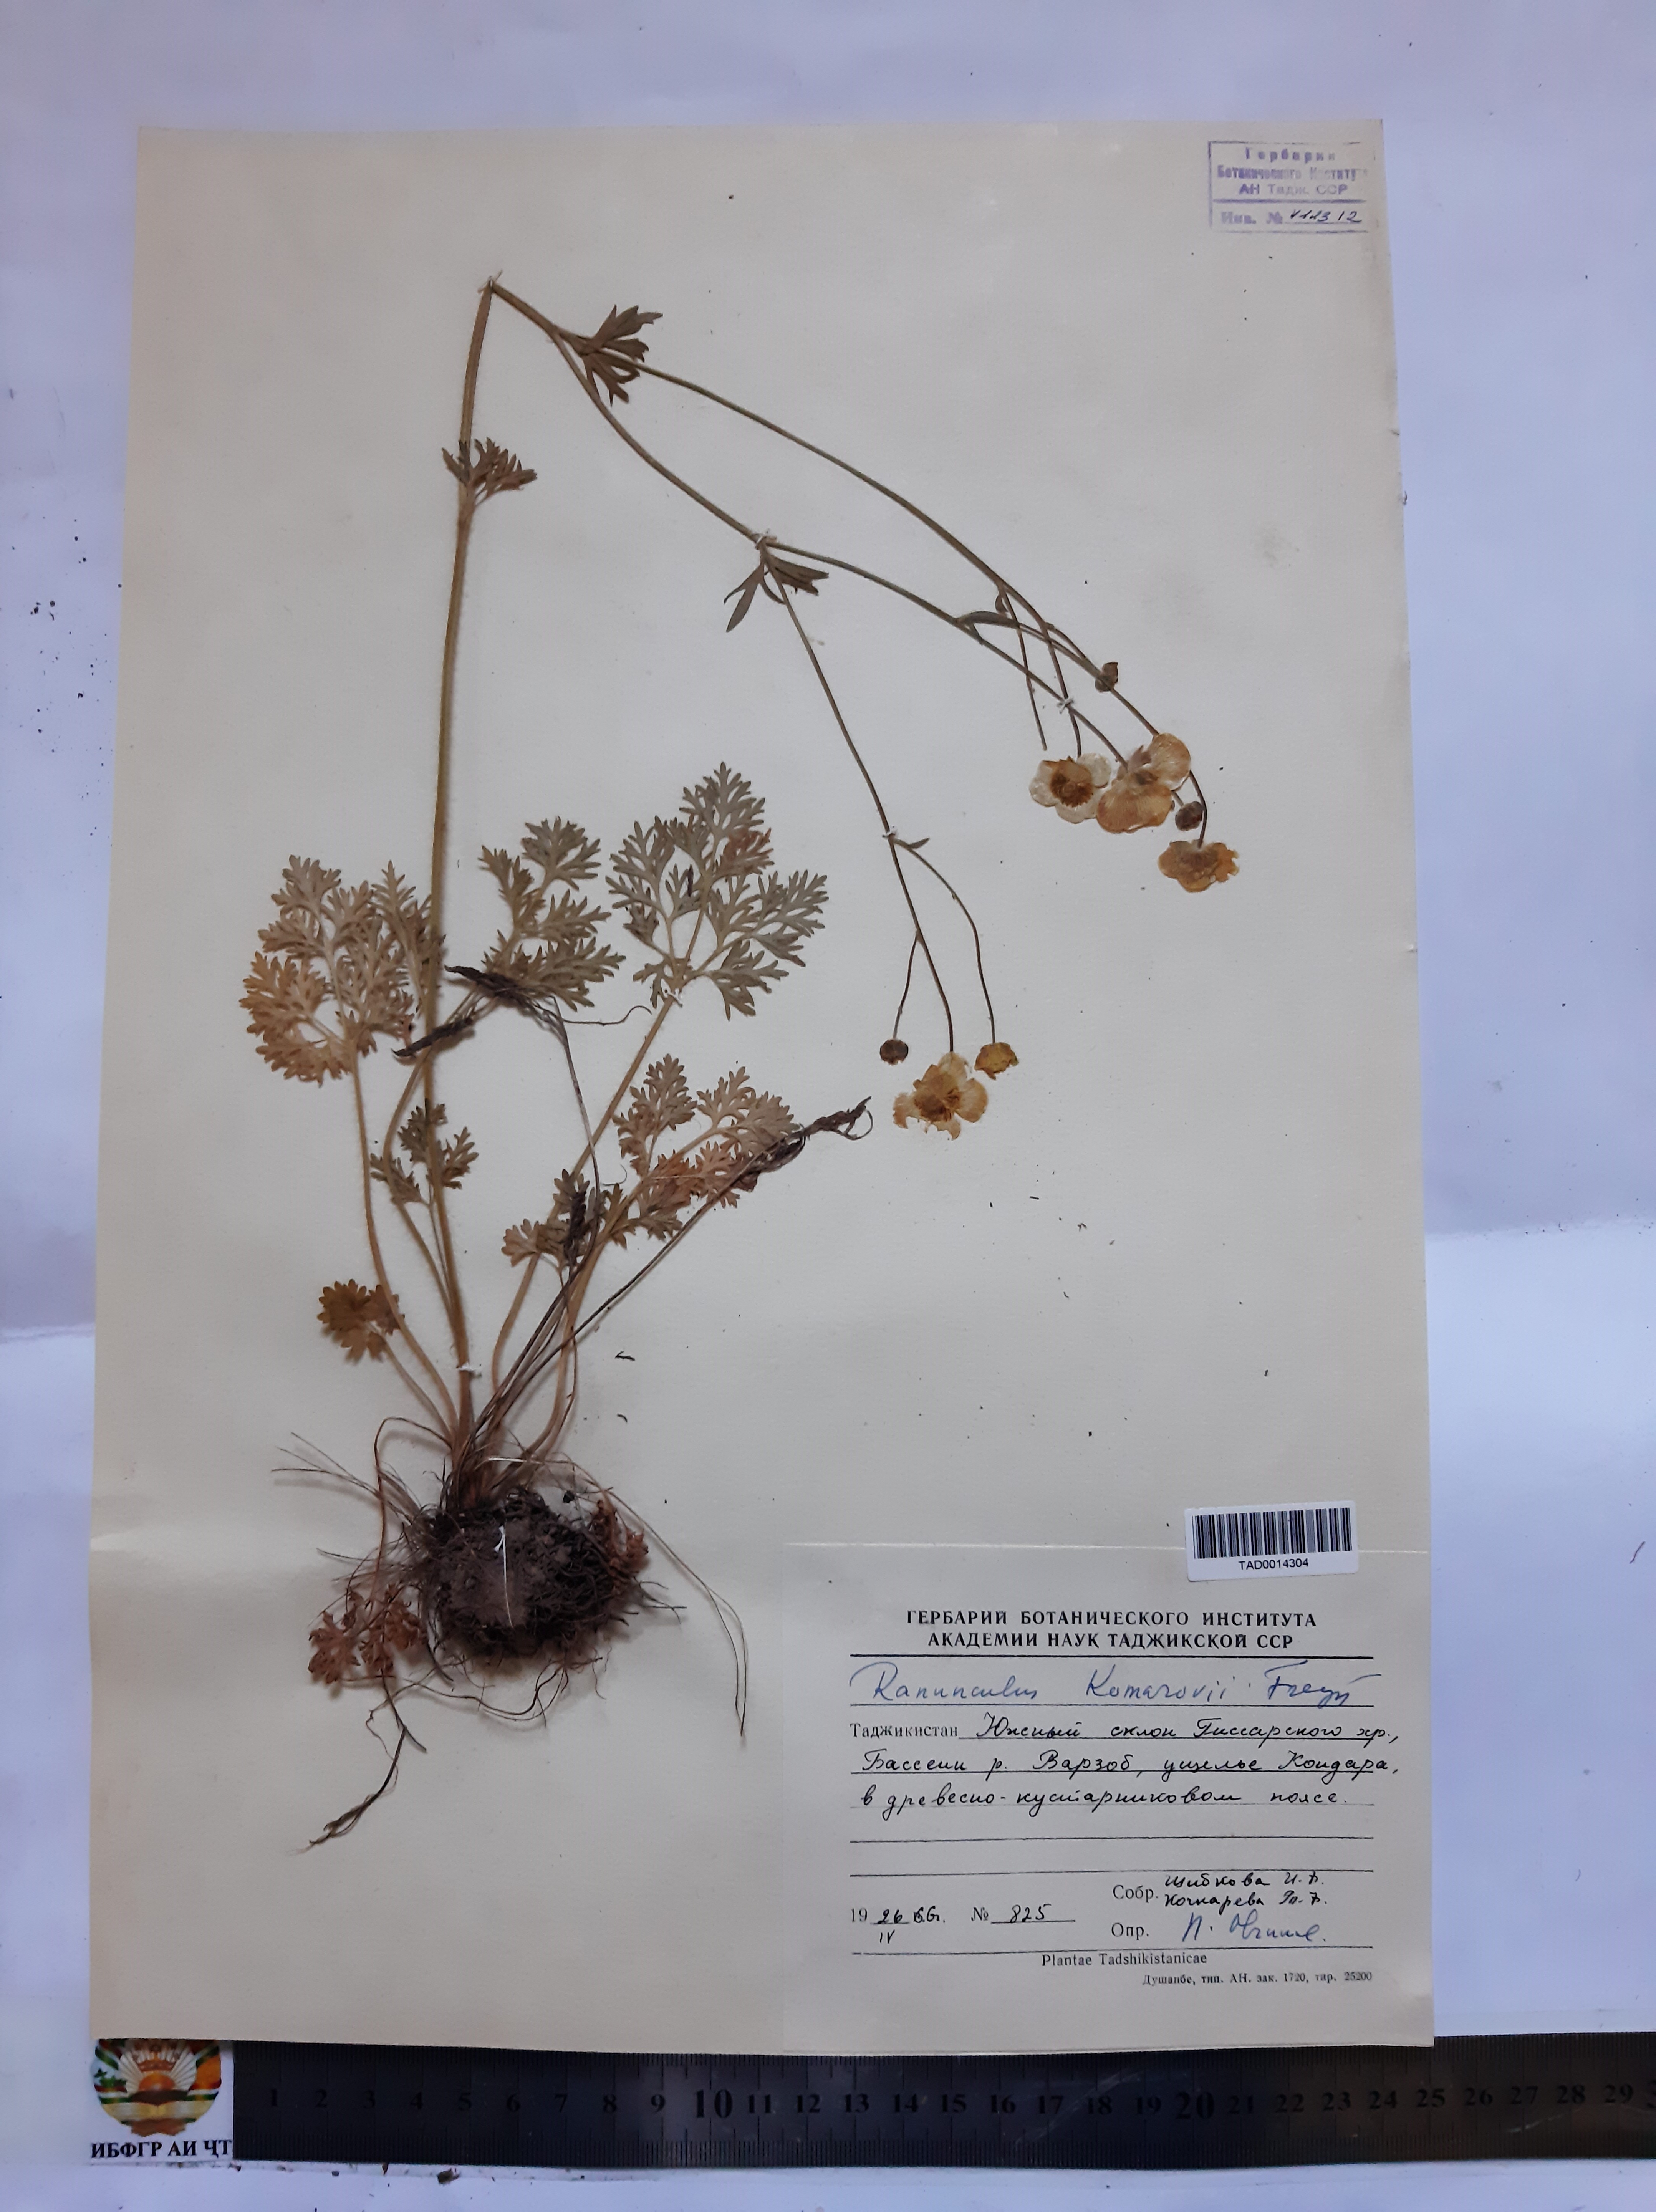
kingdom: Plantae
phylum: Tracheophyta
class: Magnoliopsida
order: Ranunculales
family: Ranunculaceae
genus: Ranunculus
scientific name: Ranunculus komarovii
